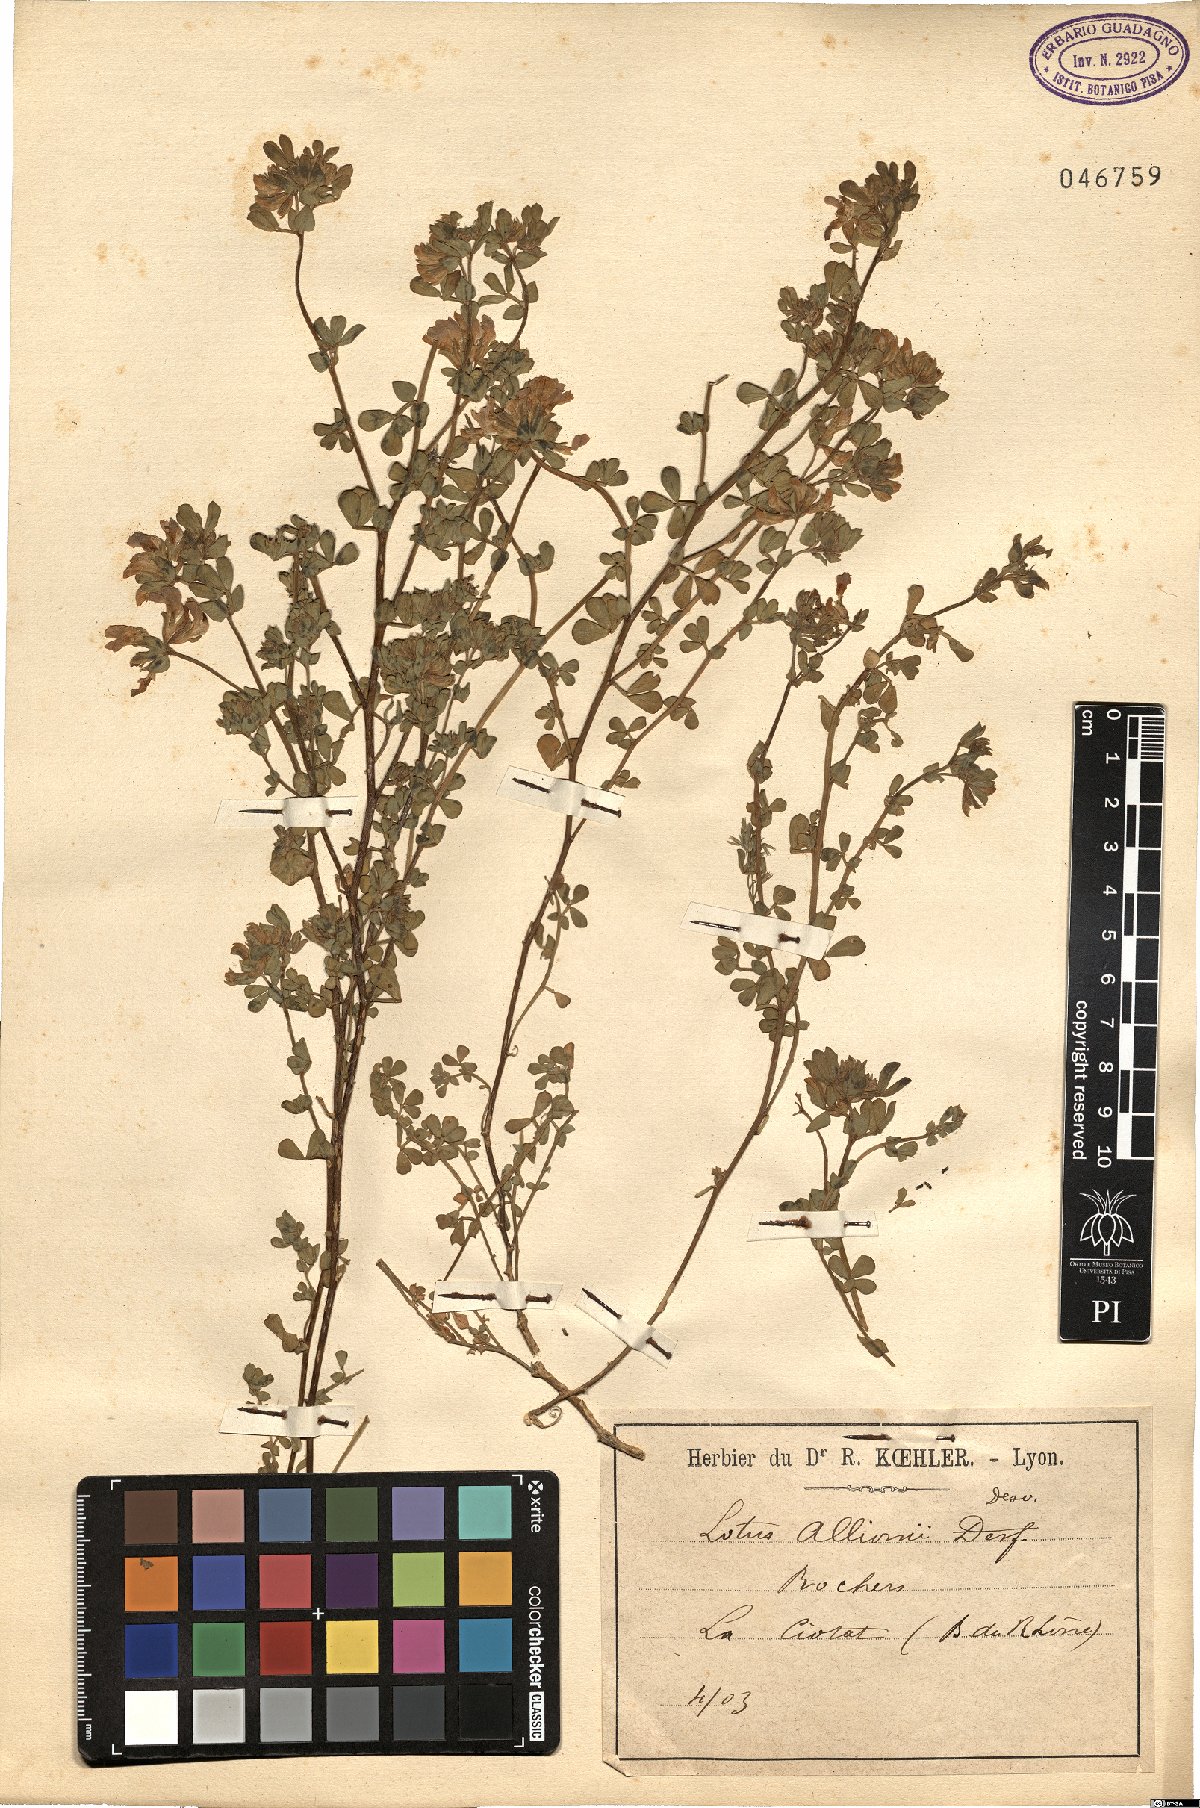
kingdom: Plantae
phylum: Tracheophyta
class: Magnoliopsida
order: Fabales
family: Fabaceae
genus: Lotus
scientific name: Lotus cytisoides
